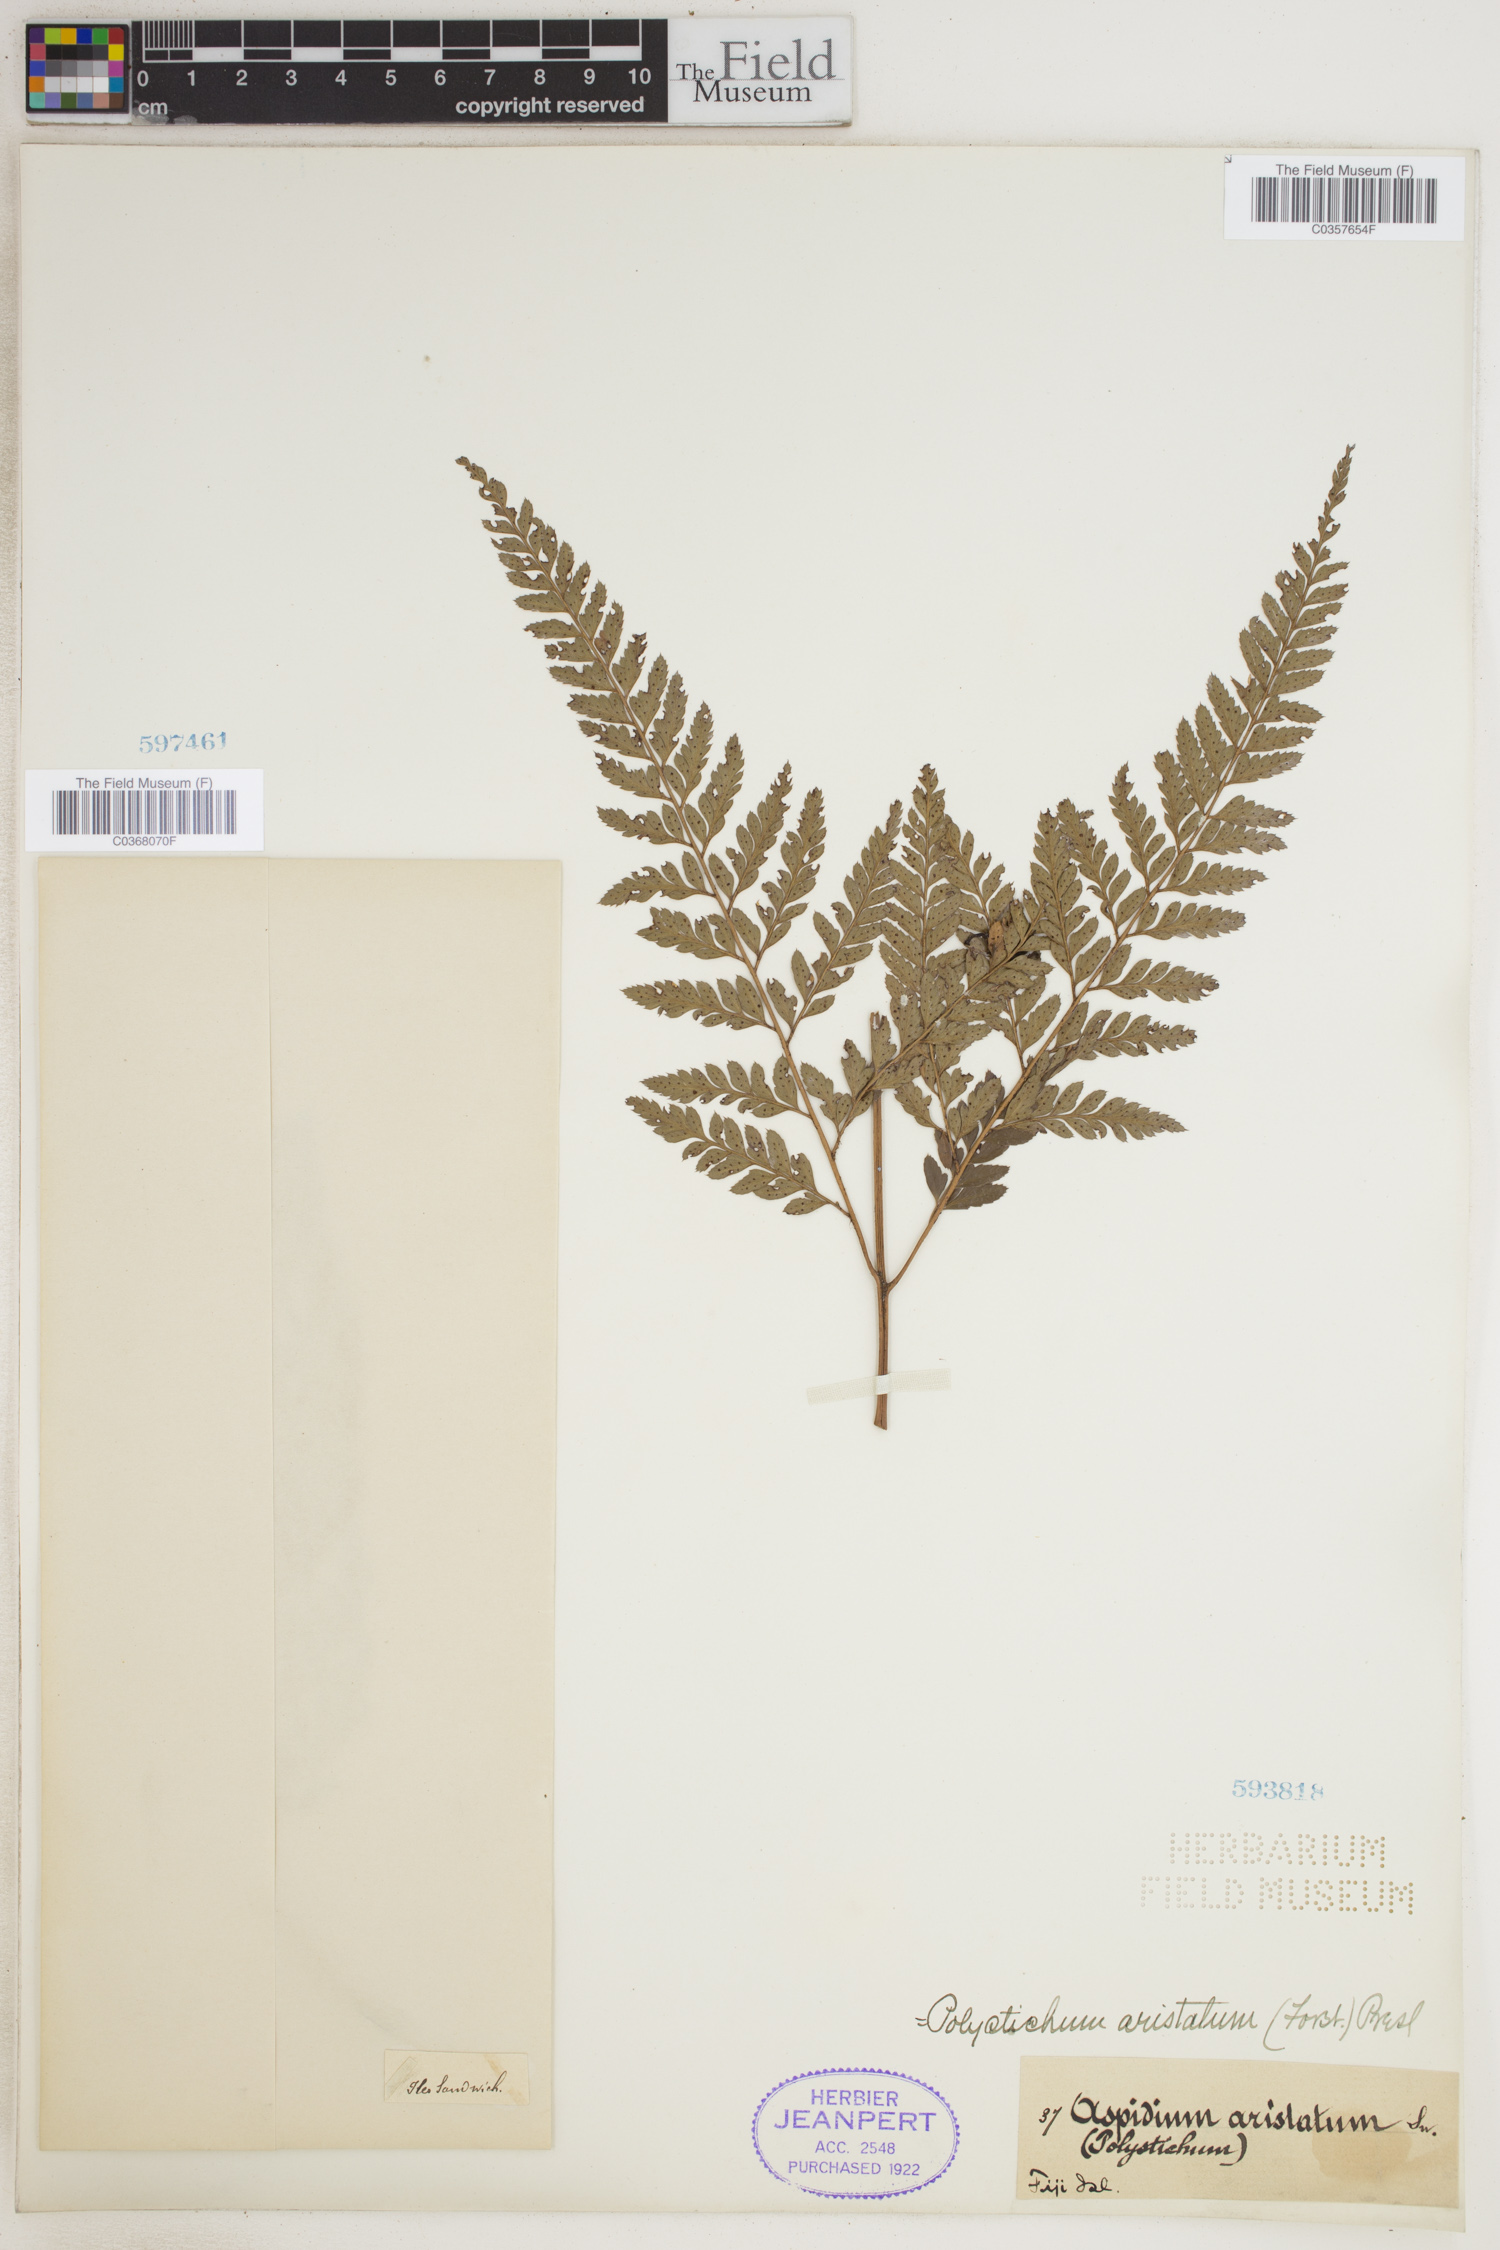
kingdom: Plantae
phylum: Tracheophyta
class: Polypodiopsida
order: Polypodiales
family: Dryopteridaceae
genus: Arachniodes
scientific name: Arachniodes aristata
